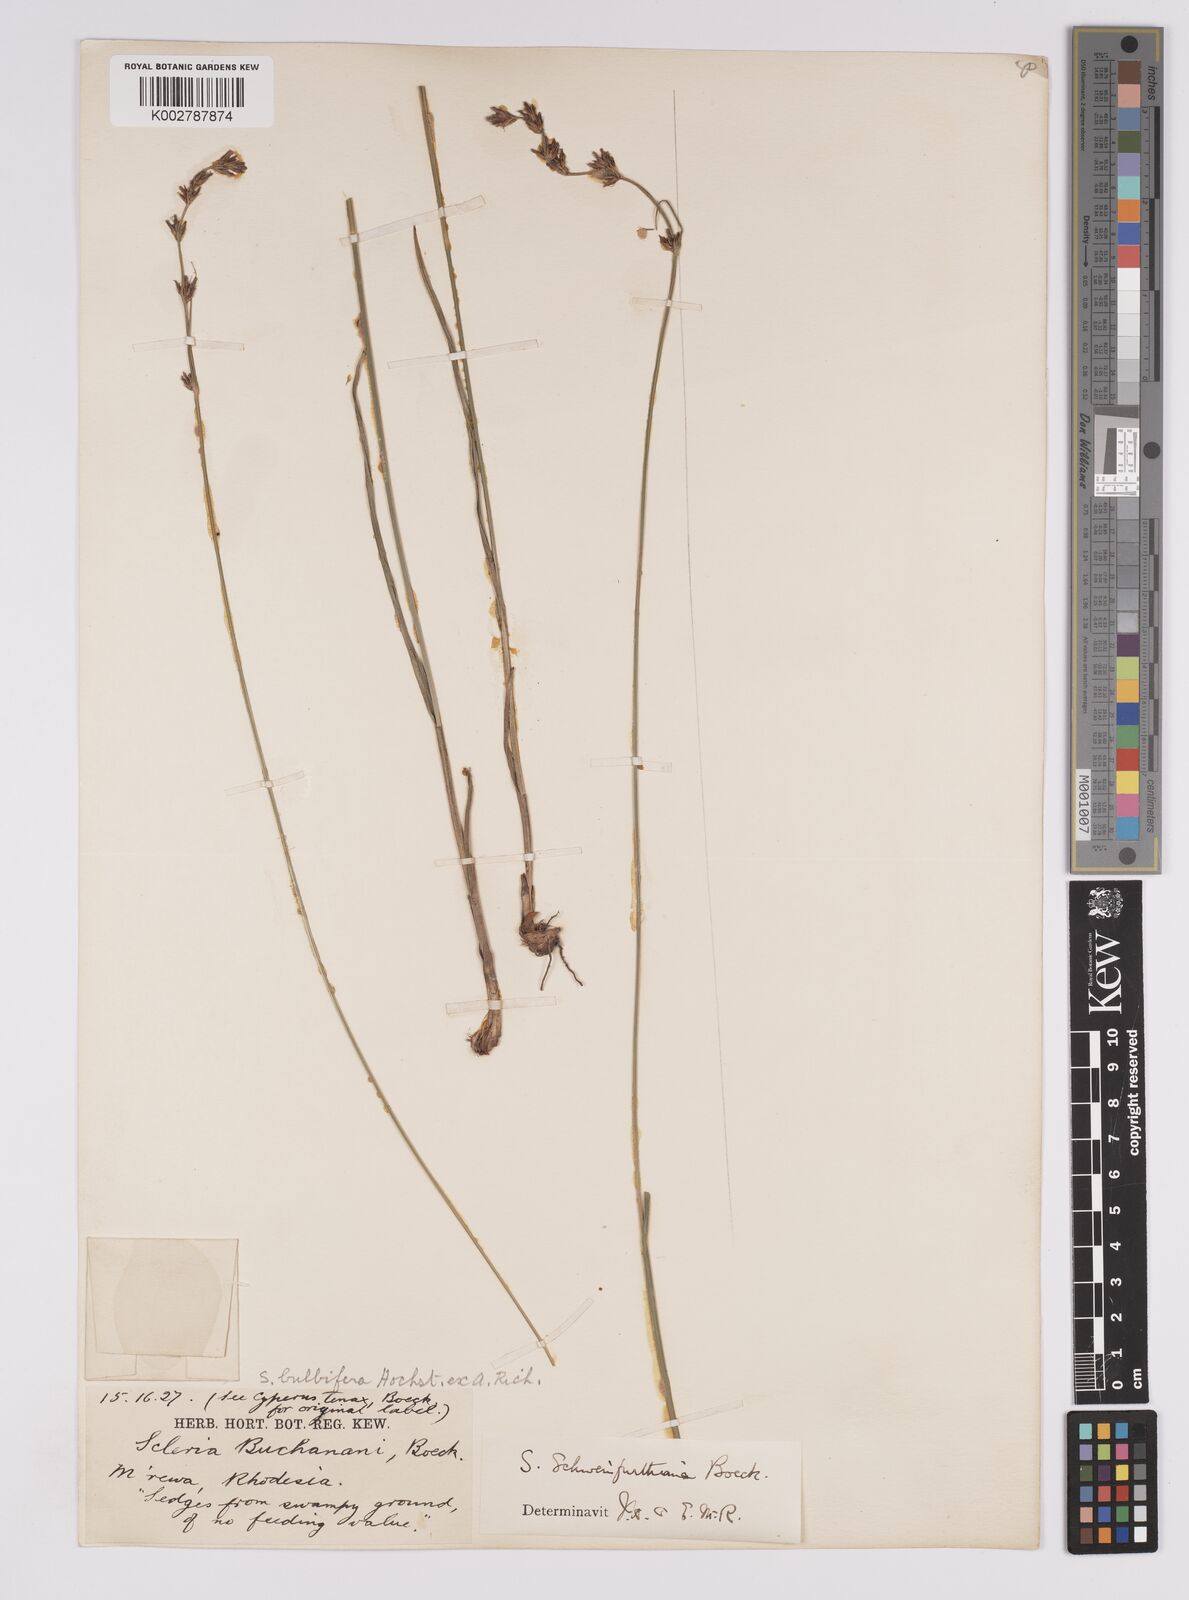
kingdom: Plantae
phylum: Tracheophyta
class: Liliopsida
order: Poales
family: Cyperaceae
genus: Scleria
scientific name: Scleria bulbifera
